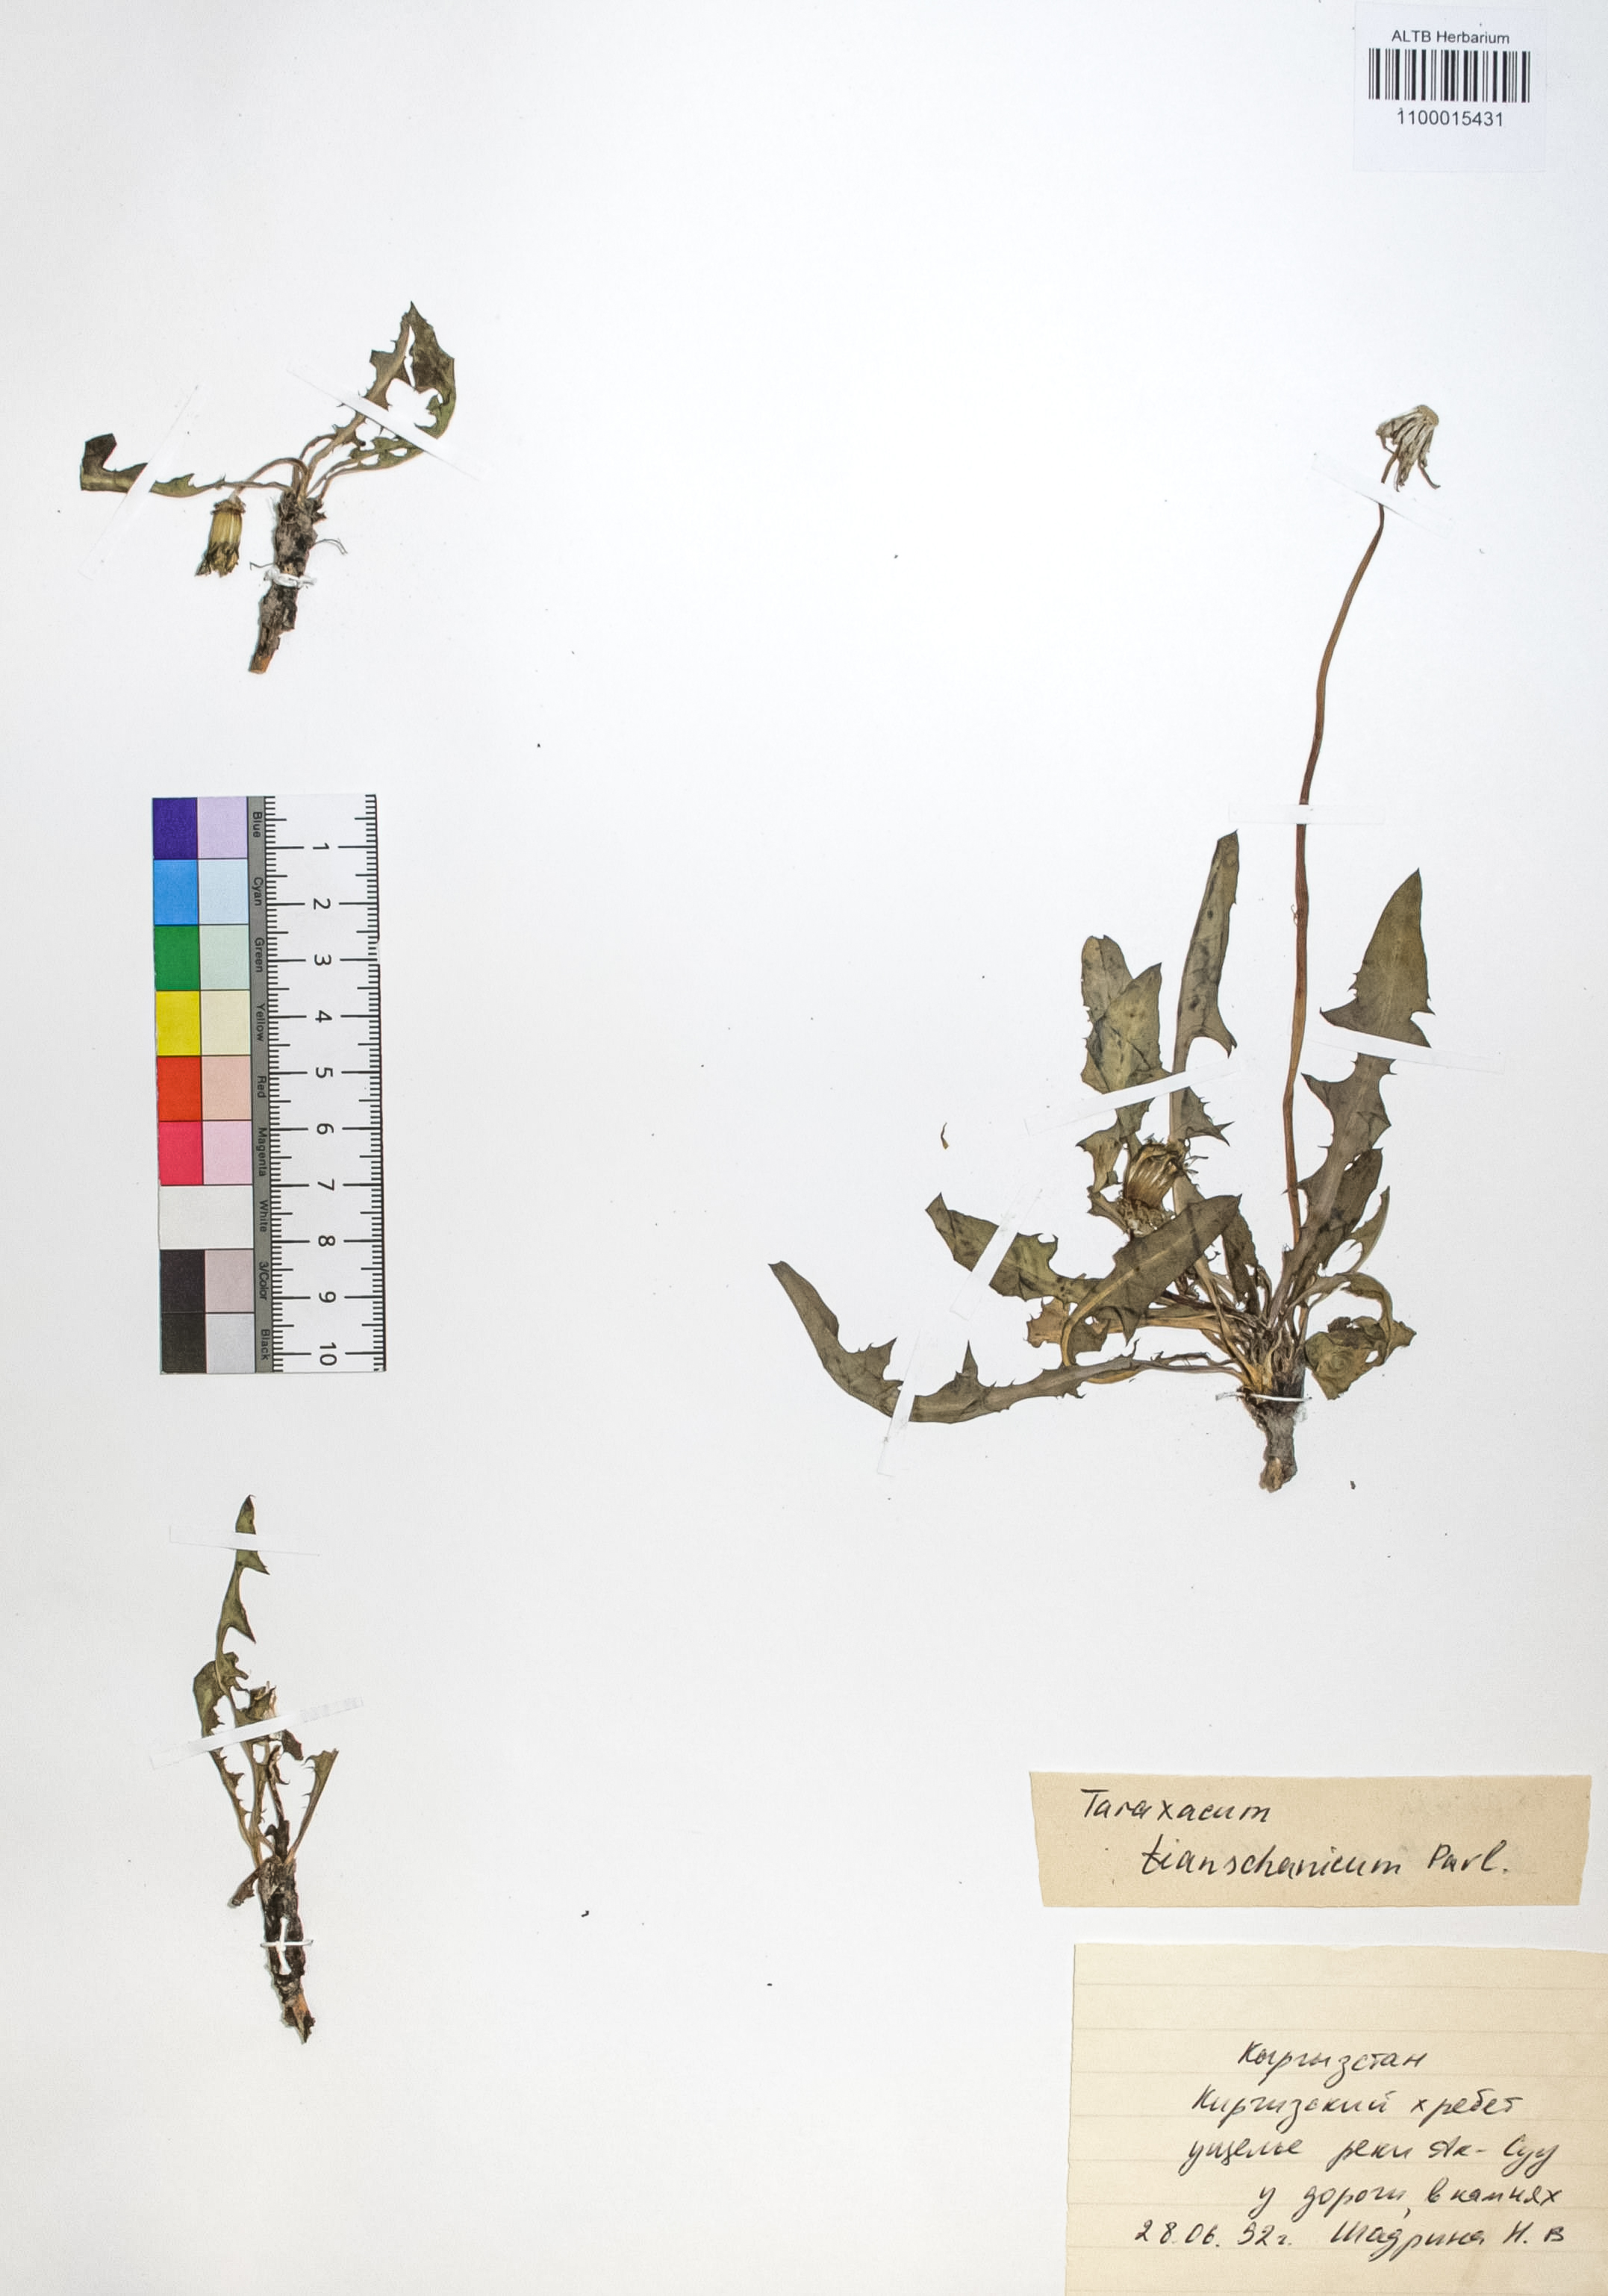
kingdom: Plantae
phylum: Tracheophyta
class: Magnoliopsida
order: Asterales
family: Asteraceae
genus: Taraxacum
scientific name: Taraxacum tianschanicum
